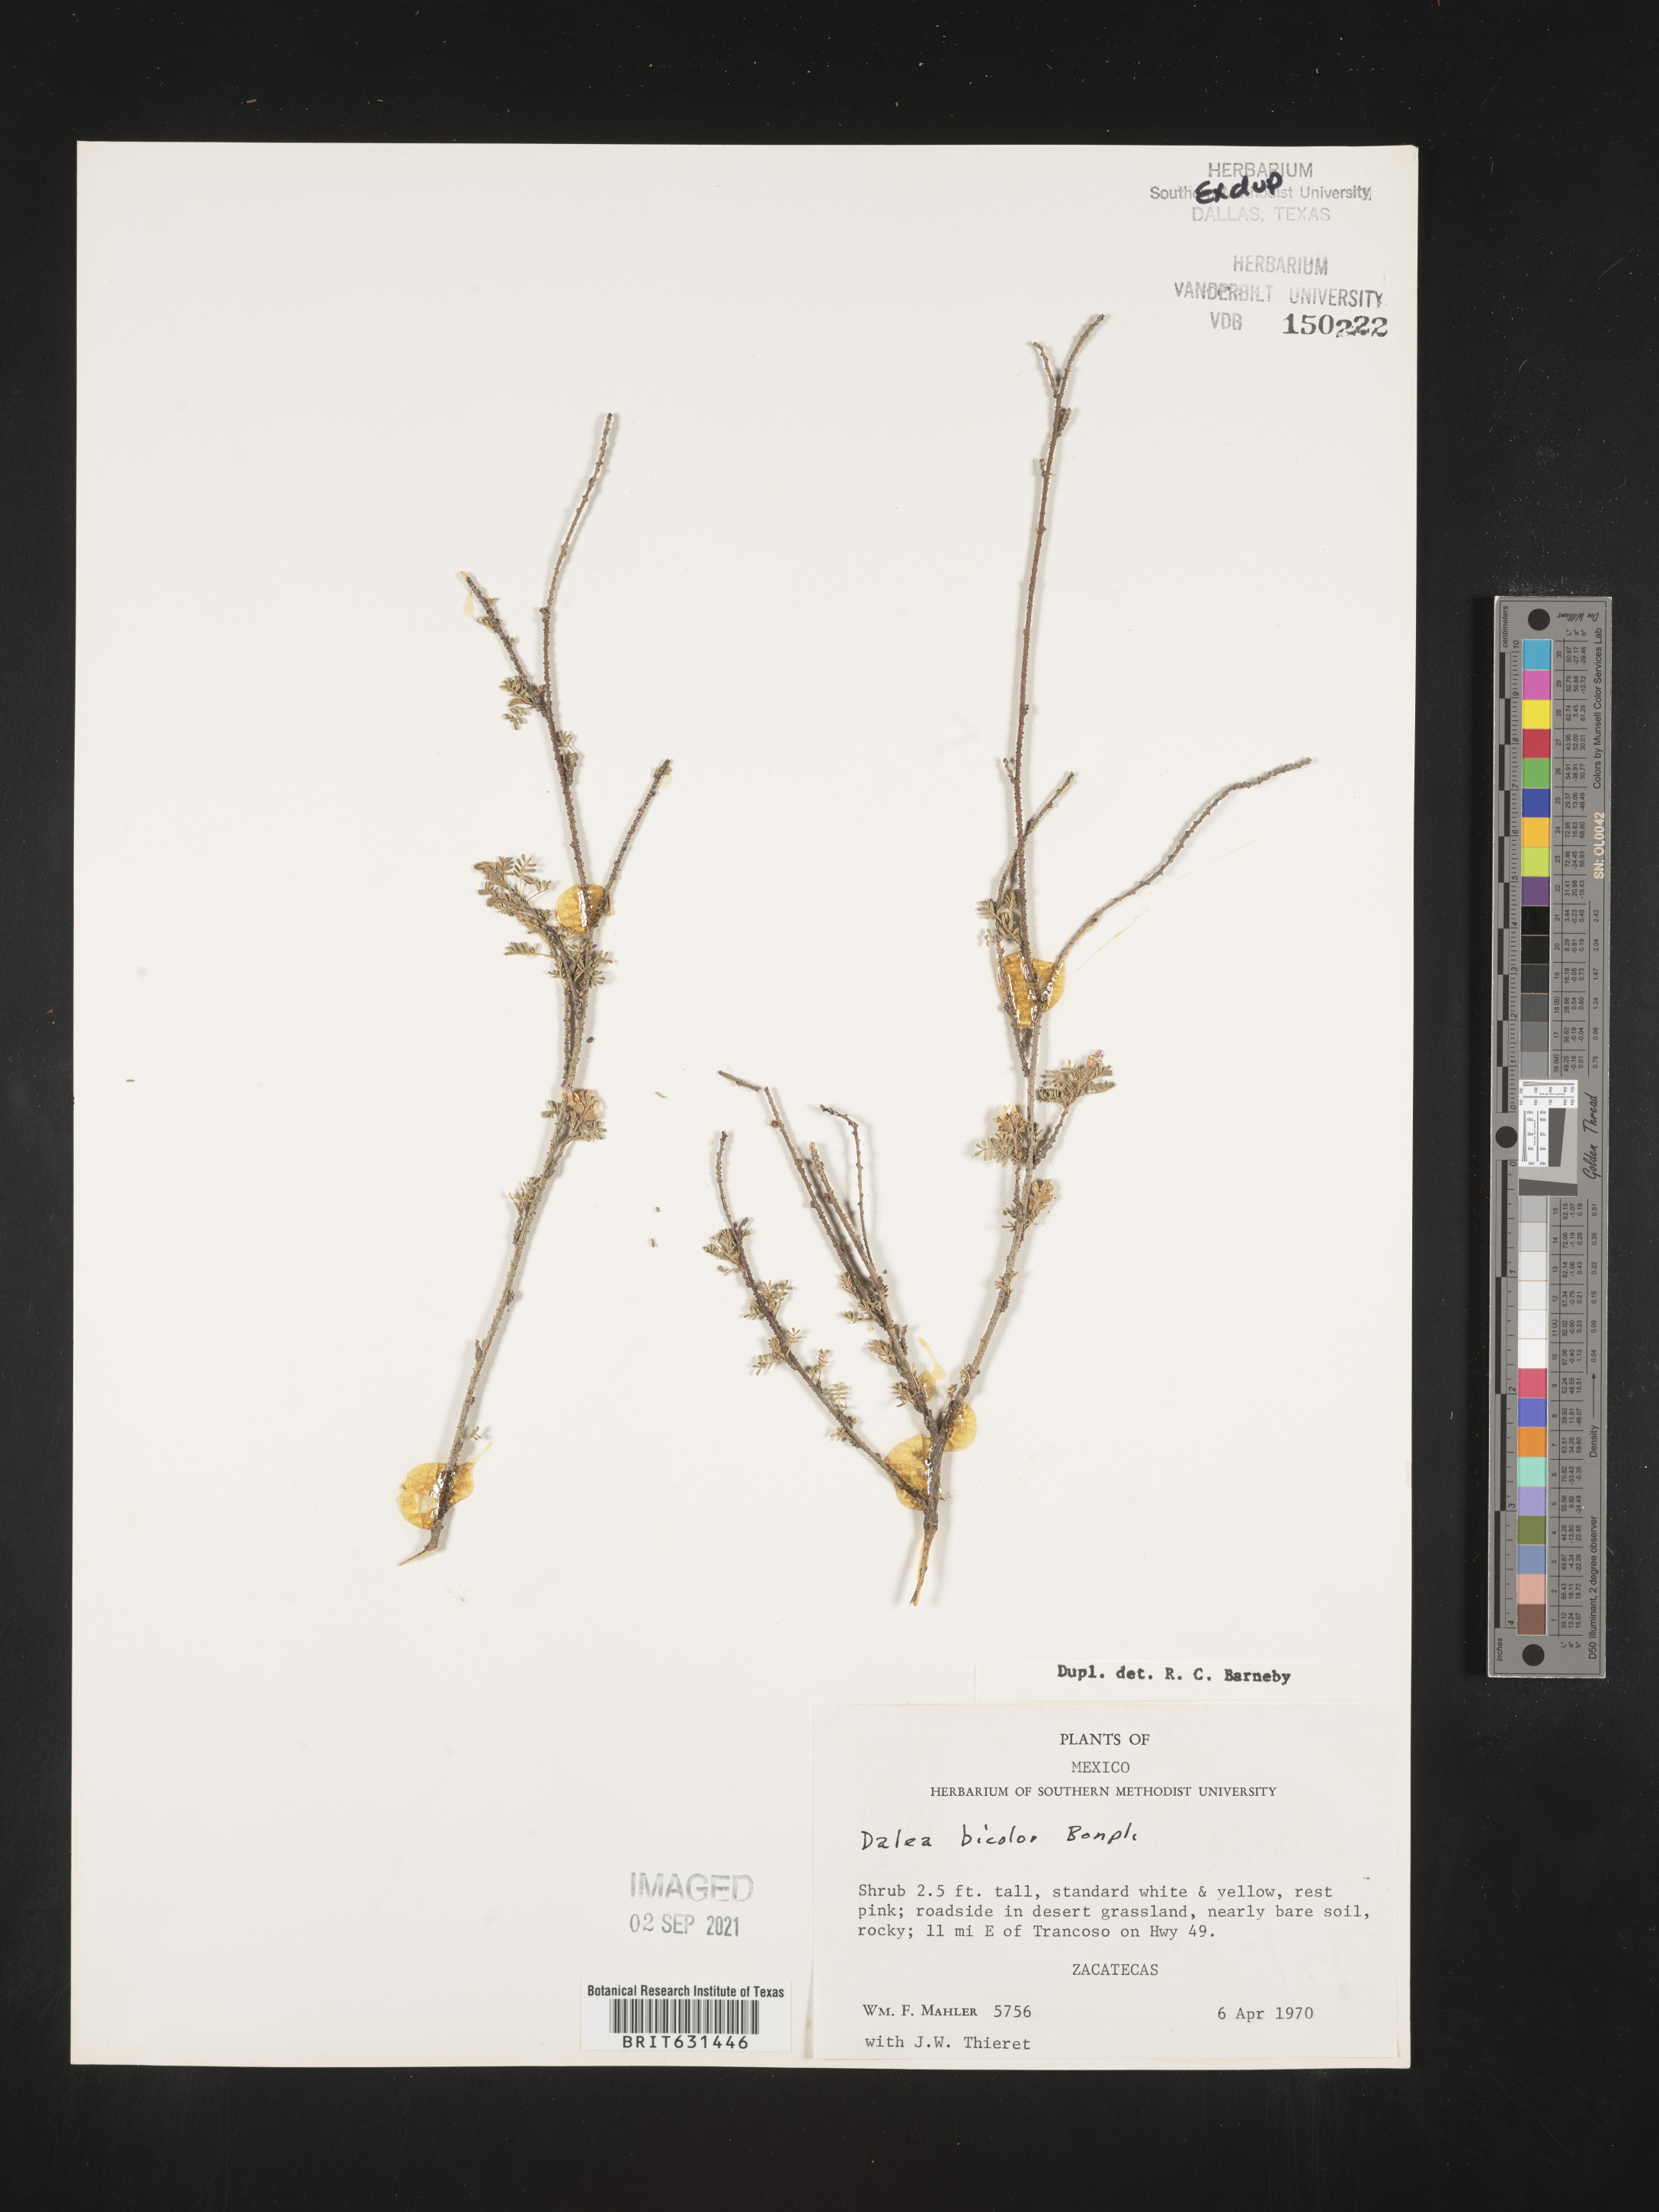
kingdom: Plantae
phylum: Tracheophyta
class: Magnoliopsida
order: Fabales
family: Fabaceae
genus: Dalea
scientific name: Dalea bicolor
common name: Silver prairie-clover
